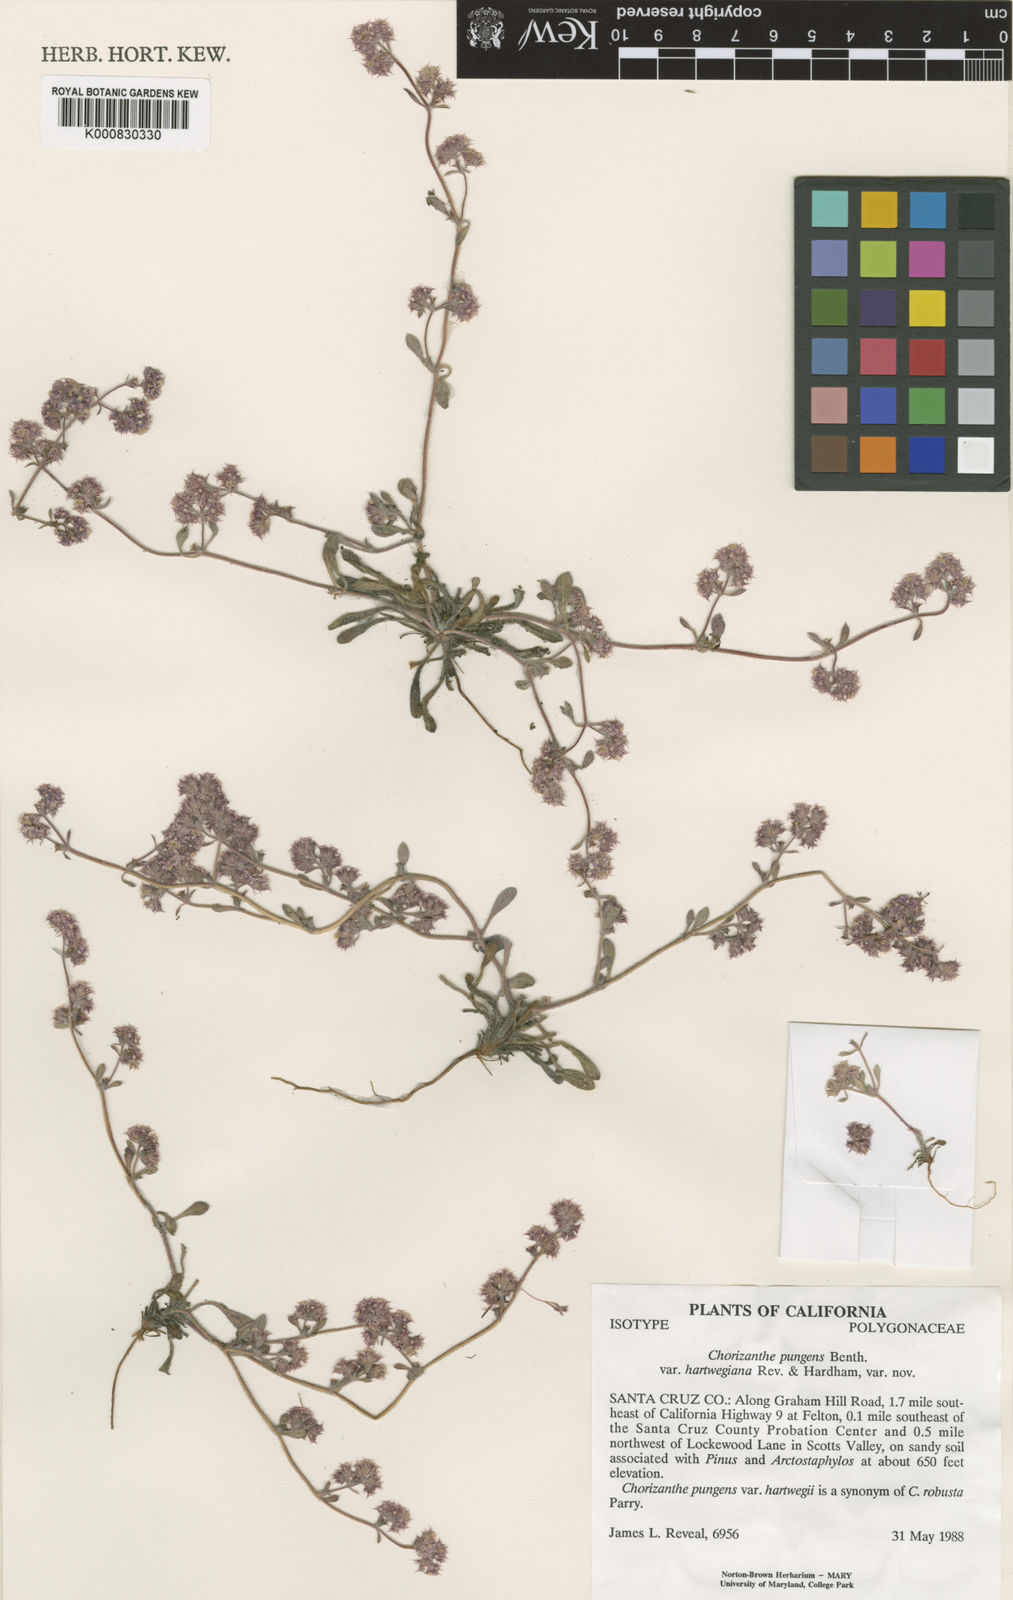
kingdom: Plantae
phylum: Tracheophyta
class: Magnoliopsida
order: Caryophyllales
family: Polygonaceae
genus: Chorizanthe
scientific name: Chorizanthe pungens
